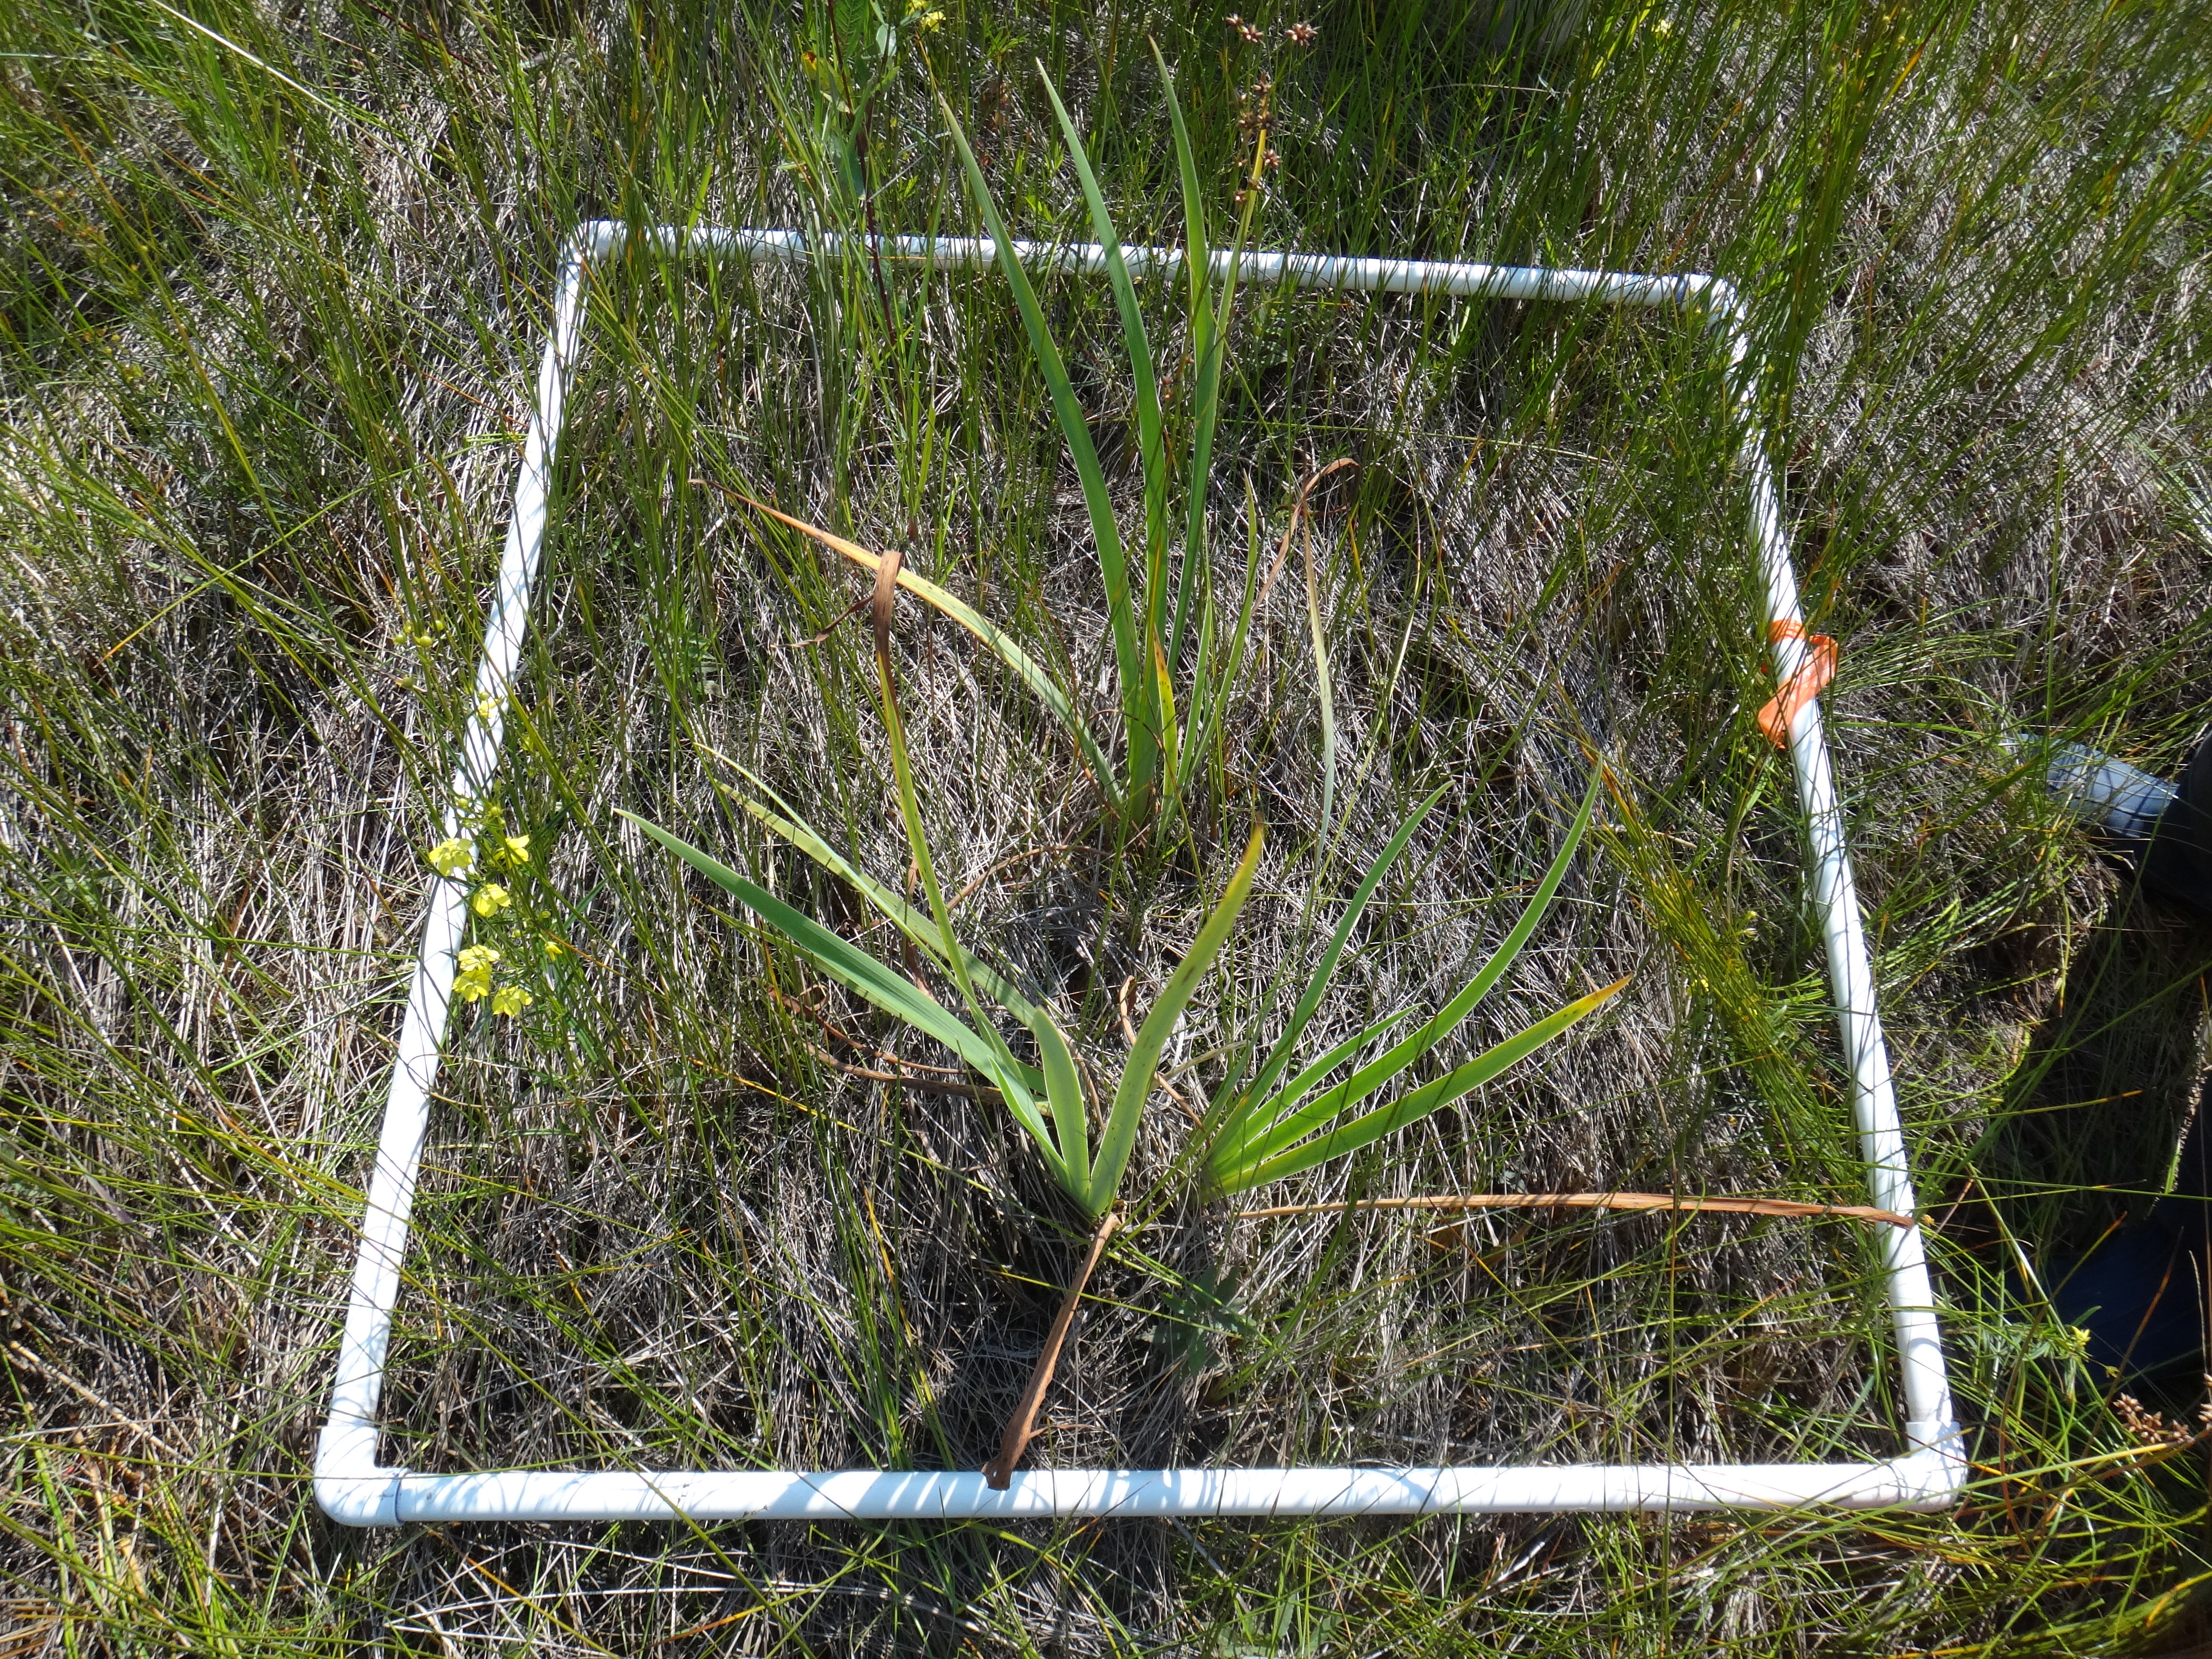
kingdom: Plantae
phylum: Tracheophyta
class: Liliopsida
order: Poales
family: Poaceae
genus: Phalaris
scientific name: Phalaris arundinacea
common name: Reed canary-grass
